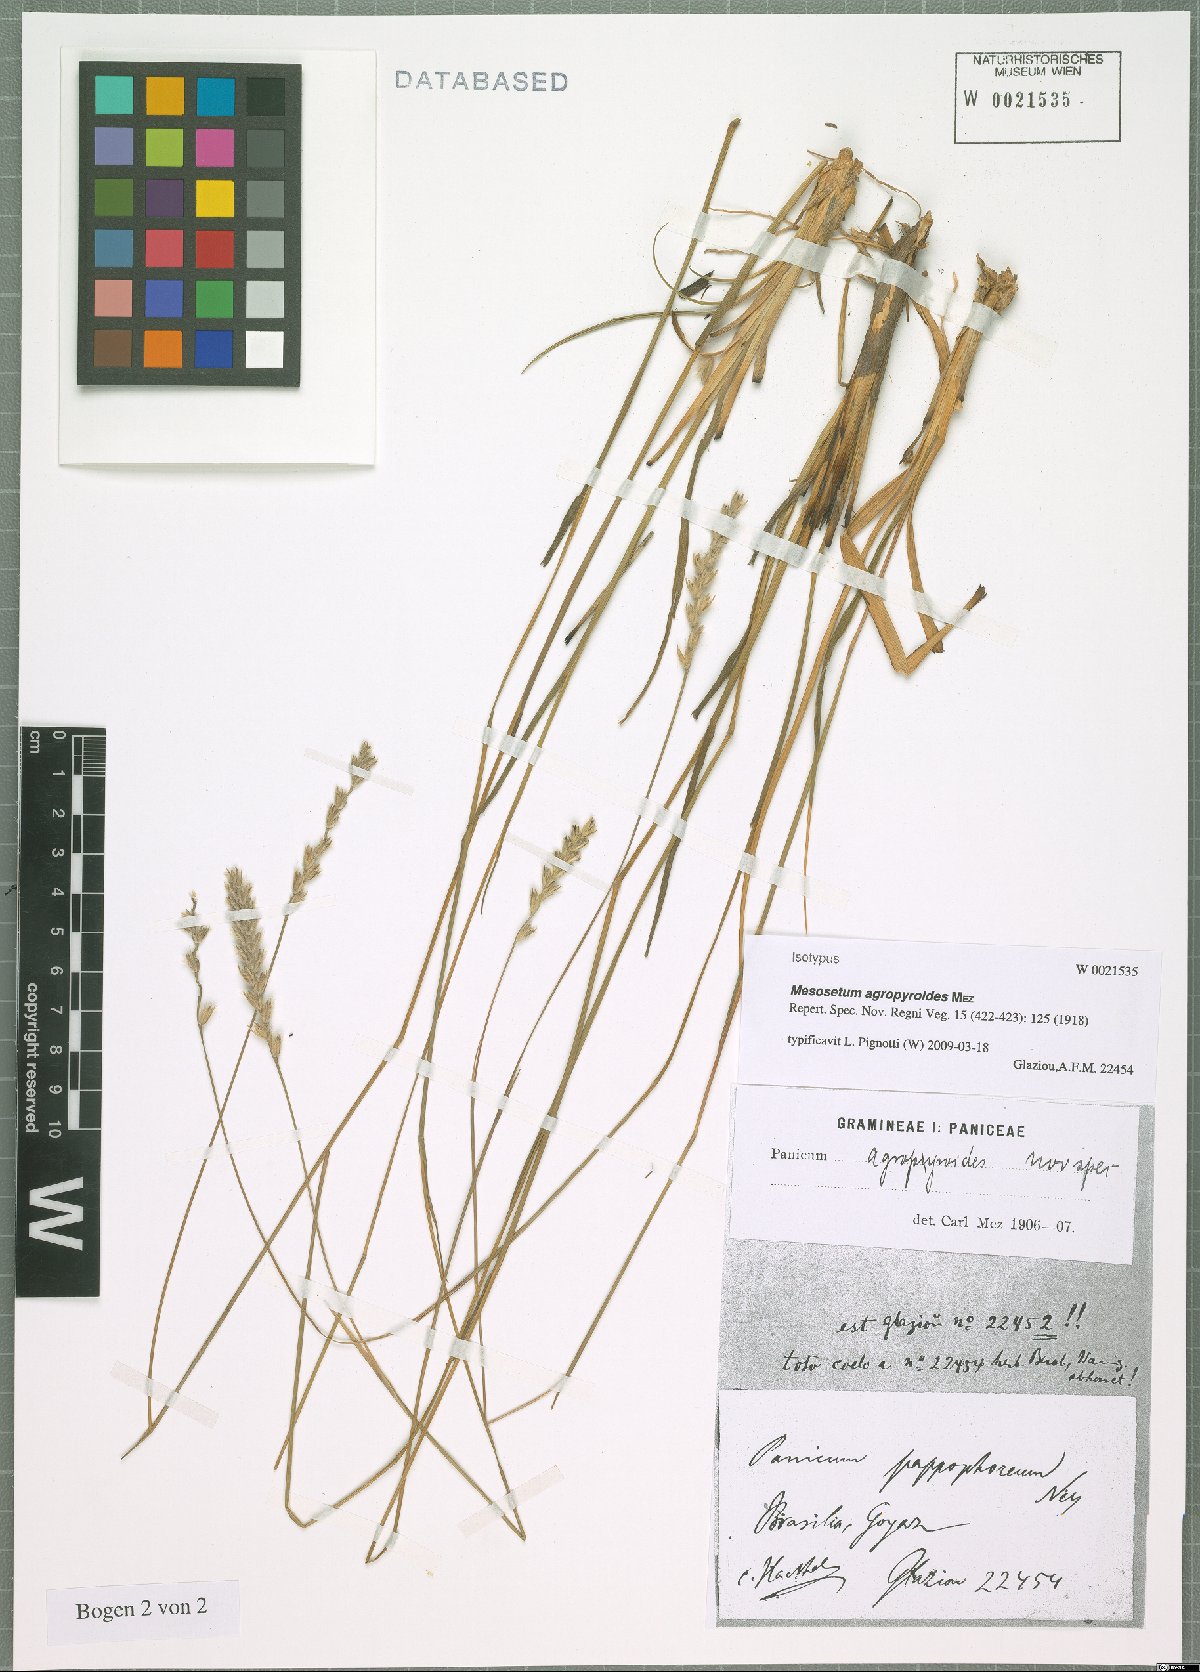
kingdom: Plantae
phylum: Tracheophyta
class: Liliopsida
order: Poales
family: Poaceae
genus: Mesosetum
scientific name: Mesosetum agropyroides
